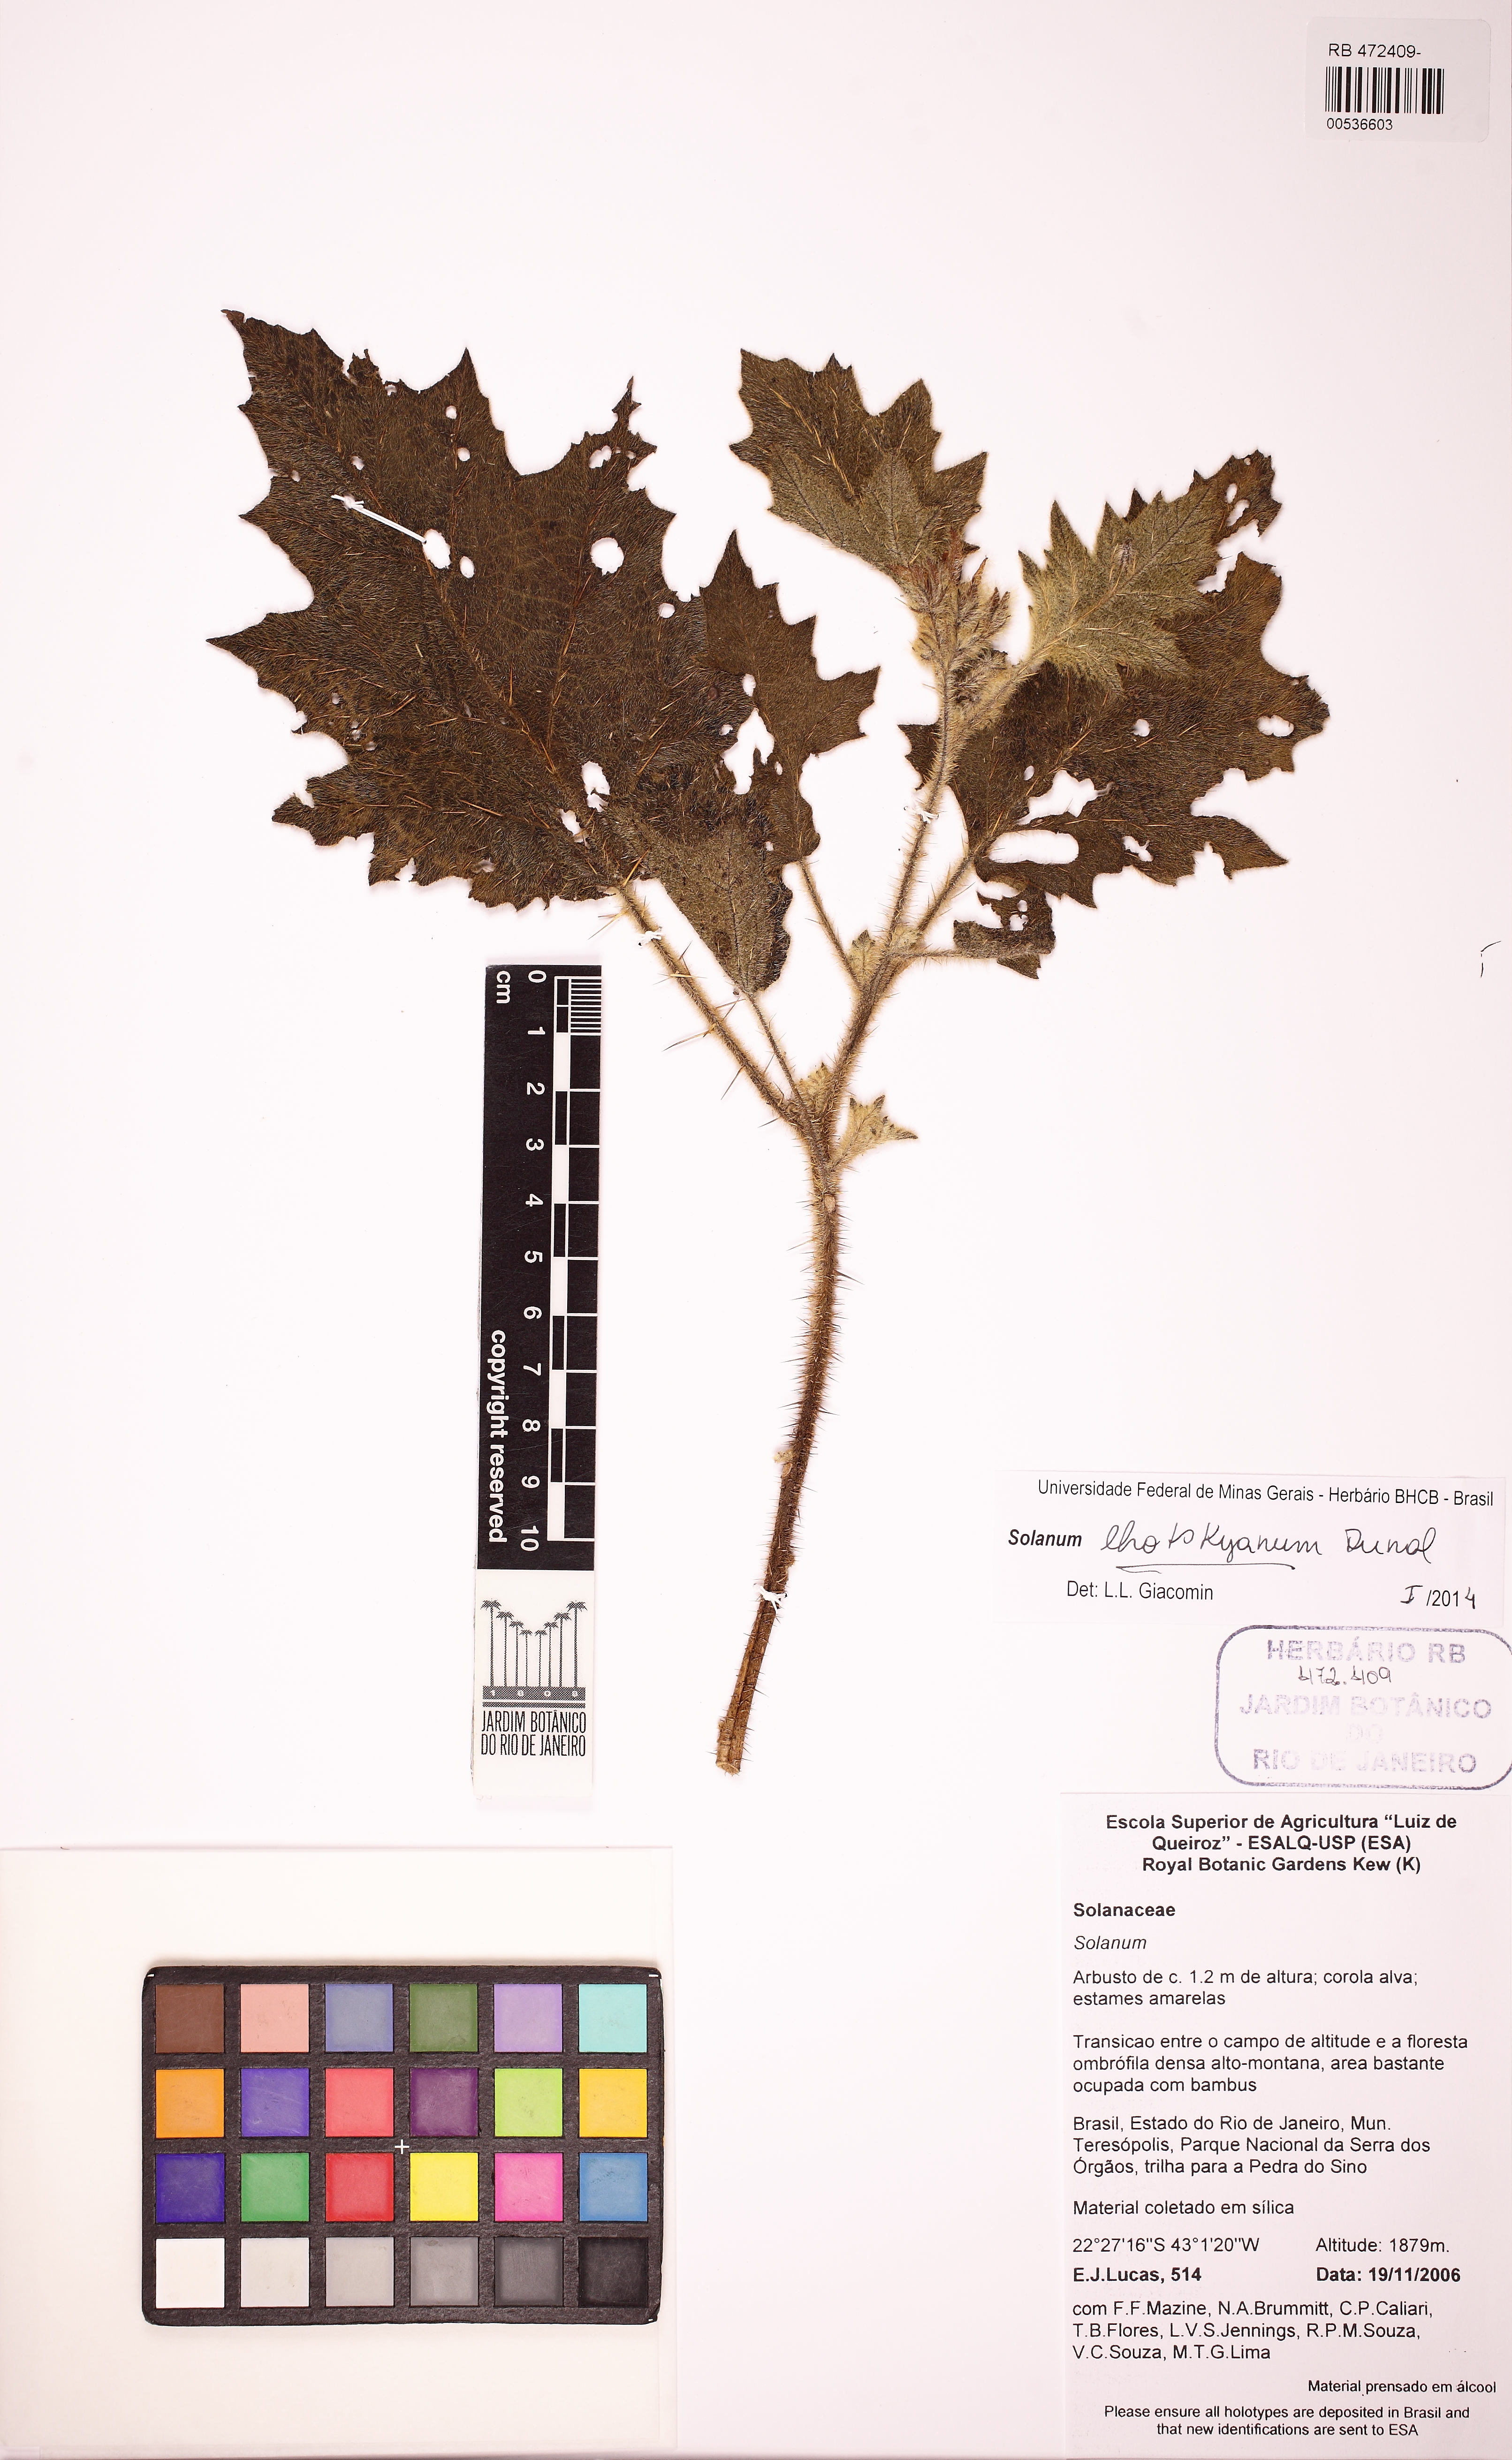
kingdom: Plantae
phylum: Tracheophyta
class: Magnoliopsida
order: Solanales
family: Solanaceae
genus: Solanum
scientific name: Solanum lhotskyanum
